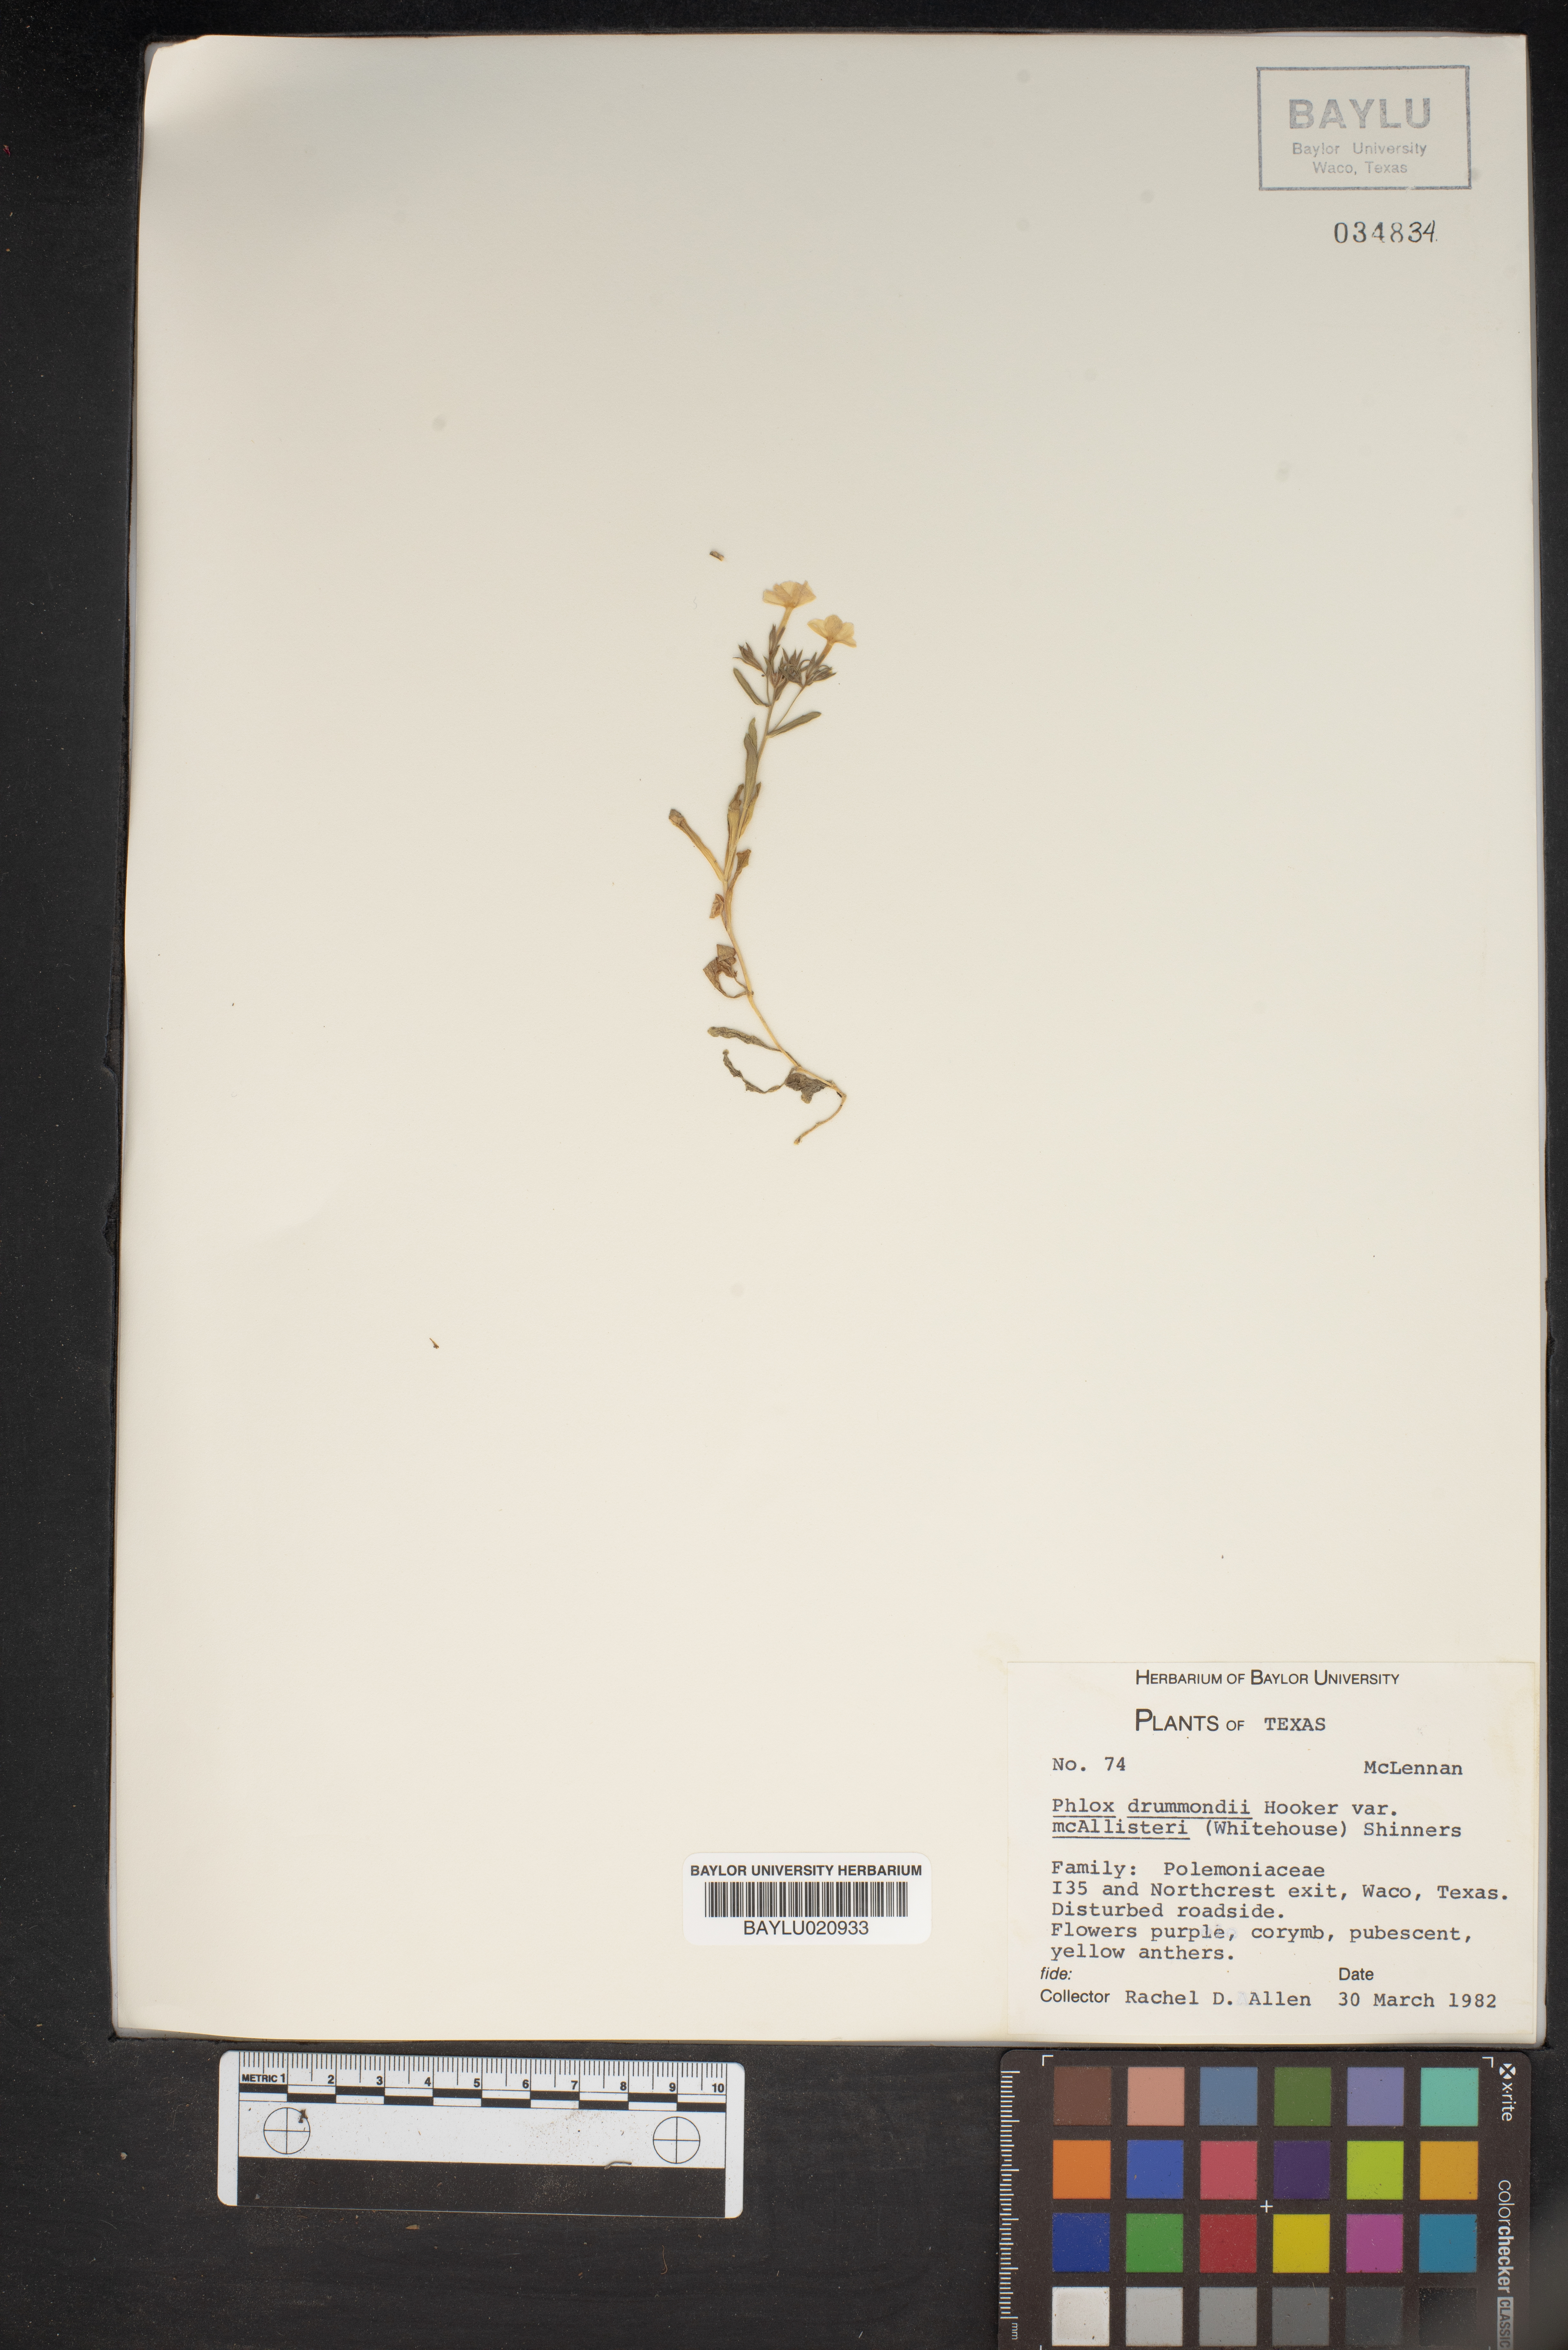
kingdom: Plantae
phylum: Tracheophyta
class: Magnoliopsida
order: Ericales
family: Polemoniaceae
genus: Phlox
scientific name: Phlox drummondii
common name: Drummond's phlox
